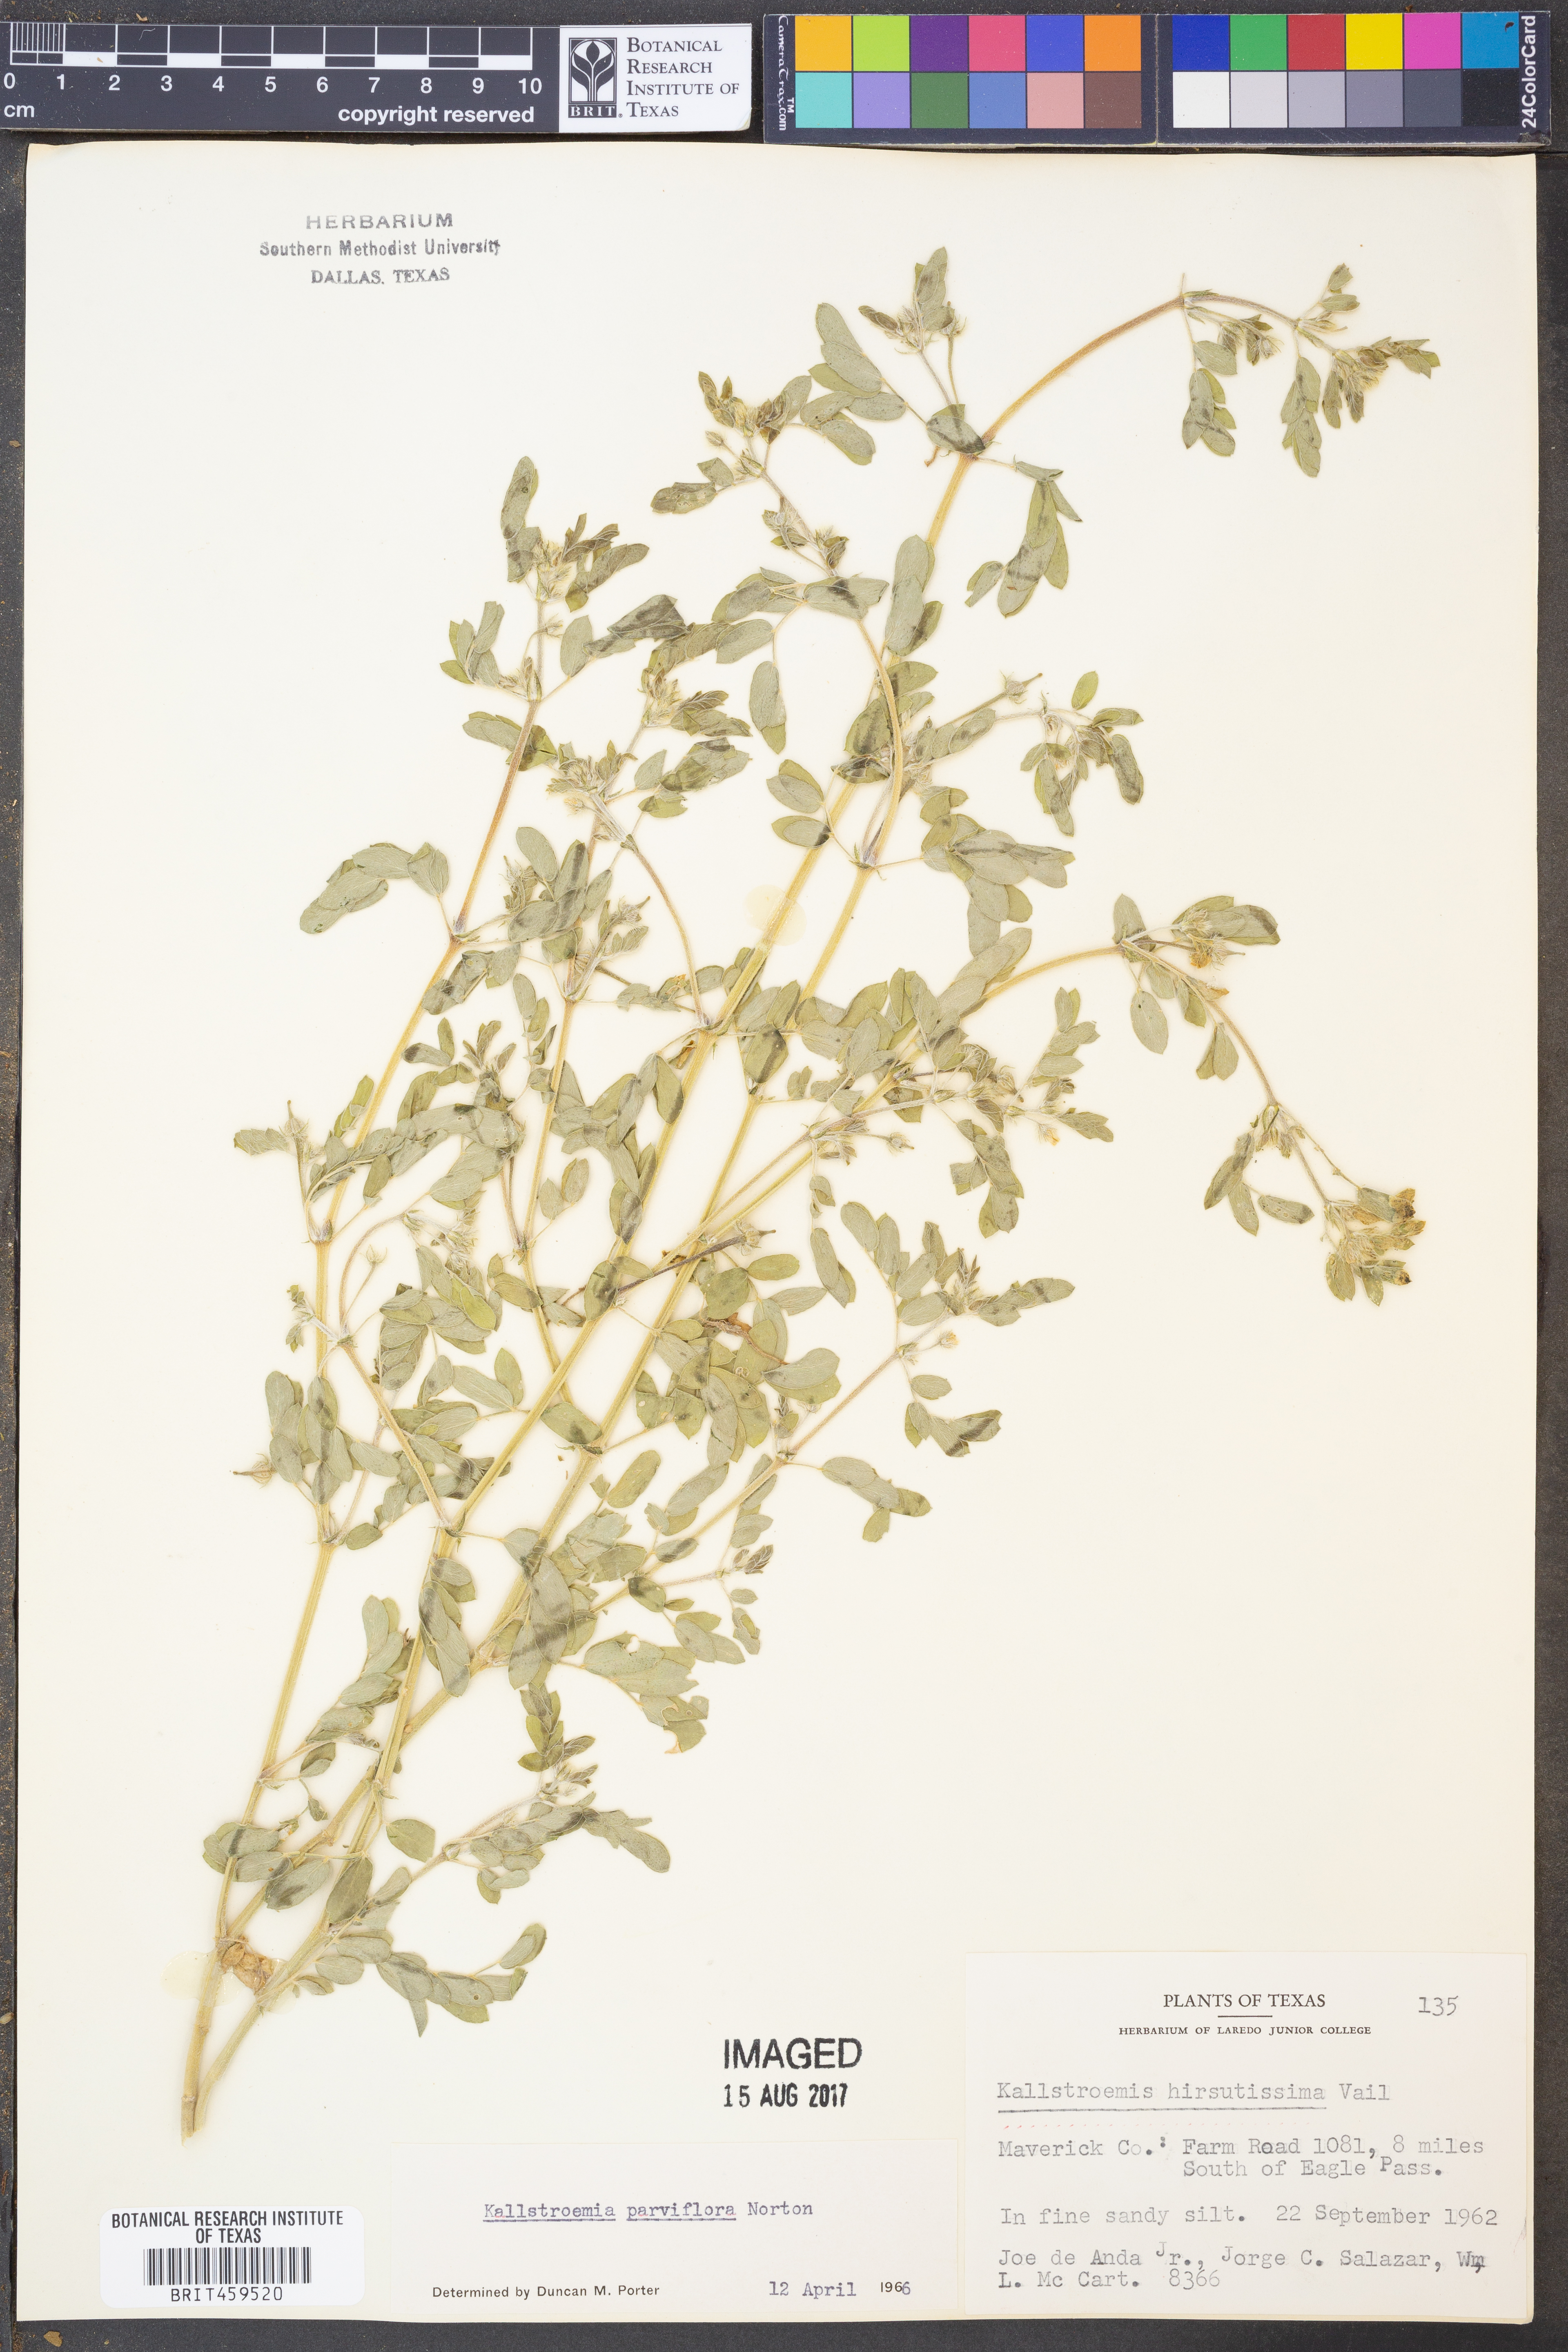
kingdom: Plantae
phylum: Tracheophyta
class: Magnoliopsida
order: Zygophyllales
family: Zygophyllaceae
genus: Kallstroemia
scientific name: Kallstroemia hirsutissima
